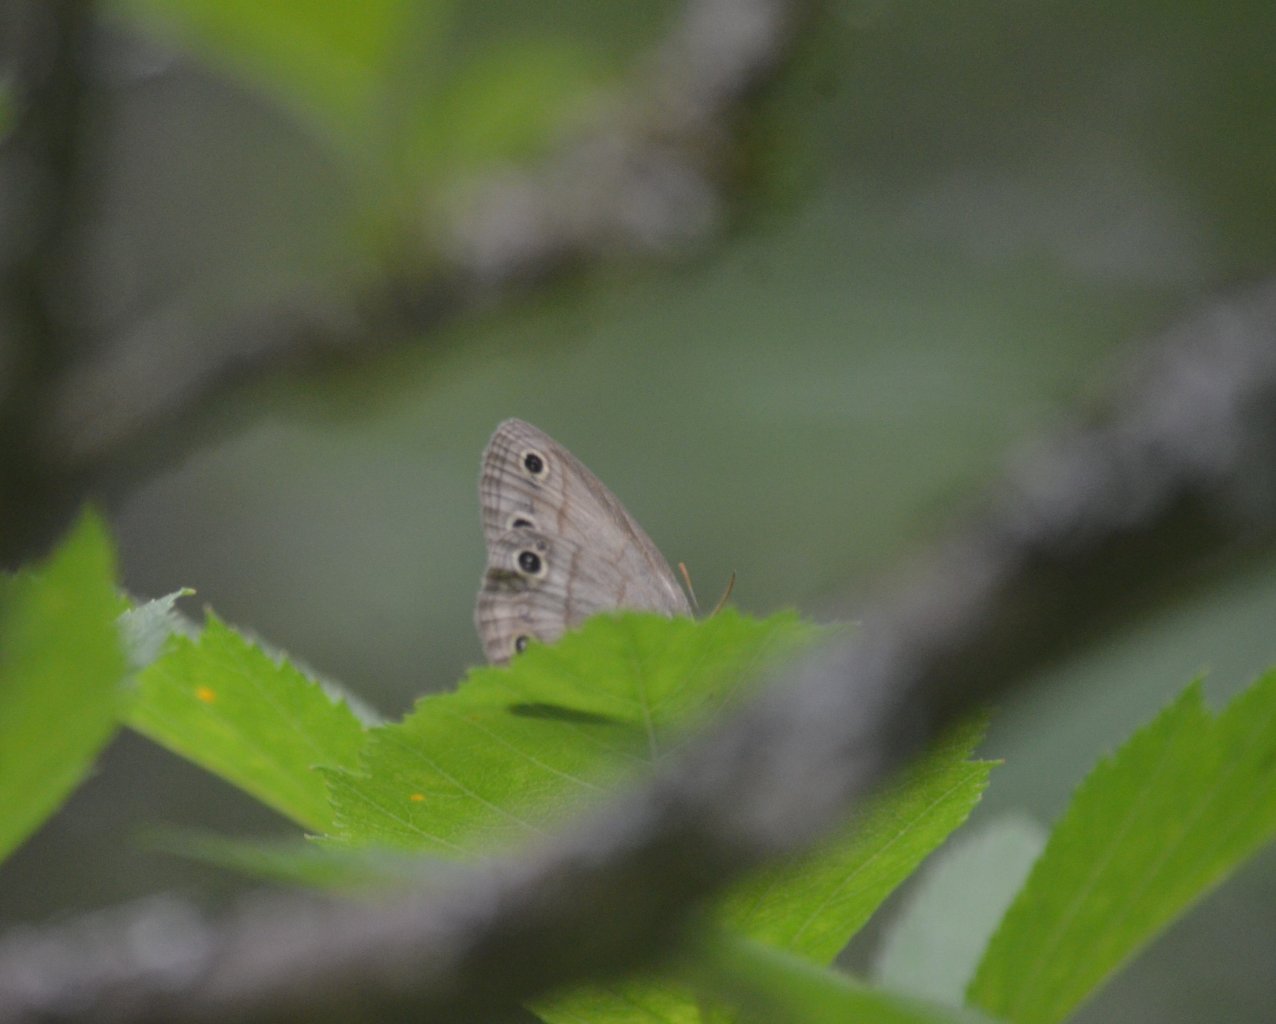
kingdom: Animalia
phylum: Arthropoda
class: Insecta
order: Lepidoptera
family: Nymphalidae
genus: Euptychia
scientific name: Euptychia cymela
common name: Little Wood Satyr
